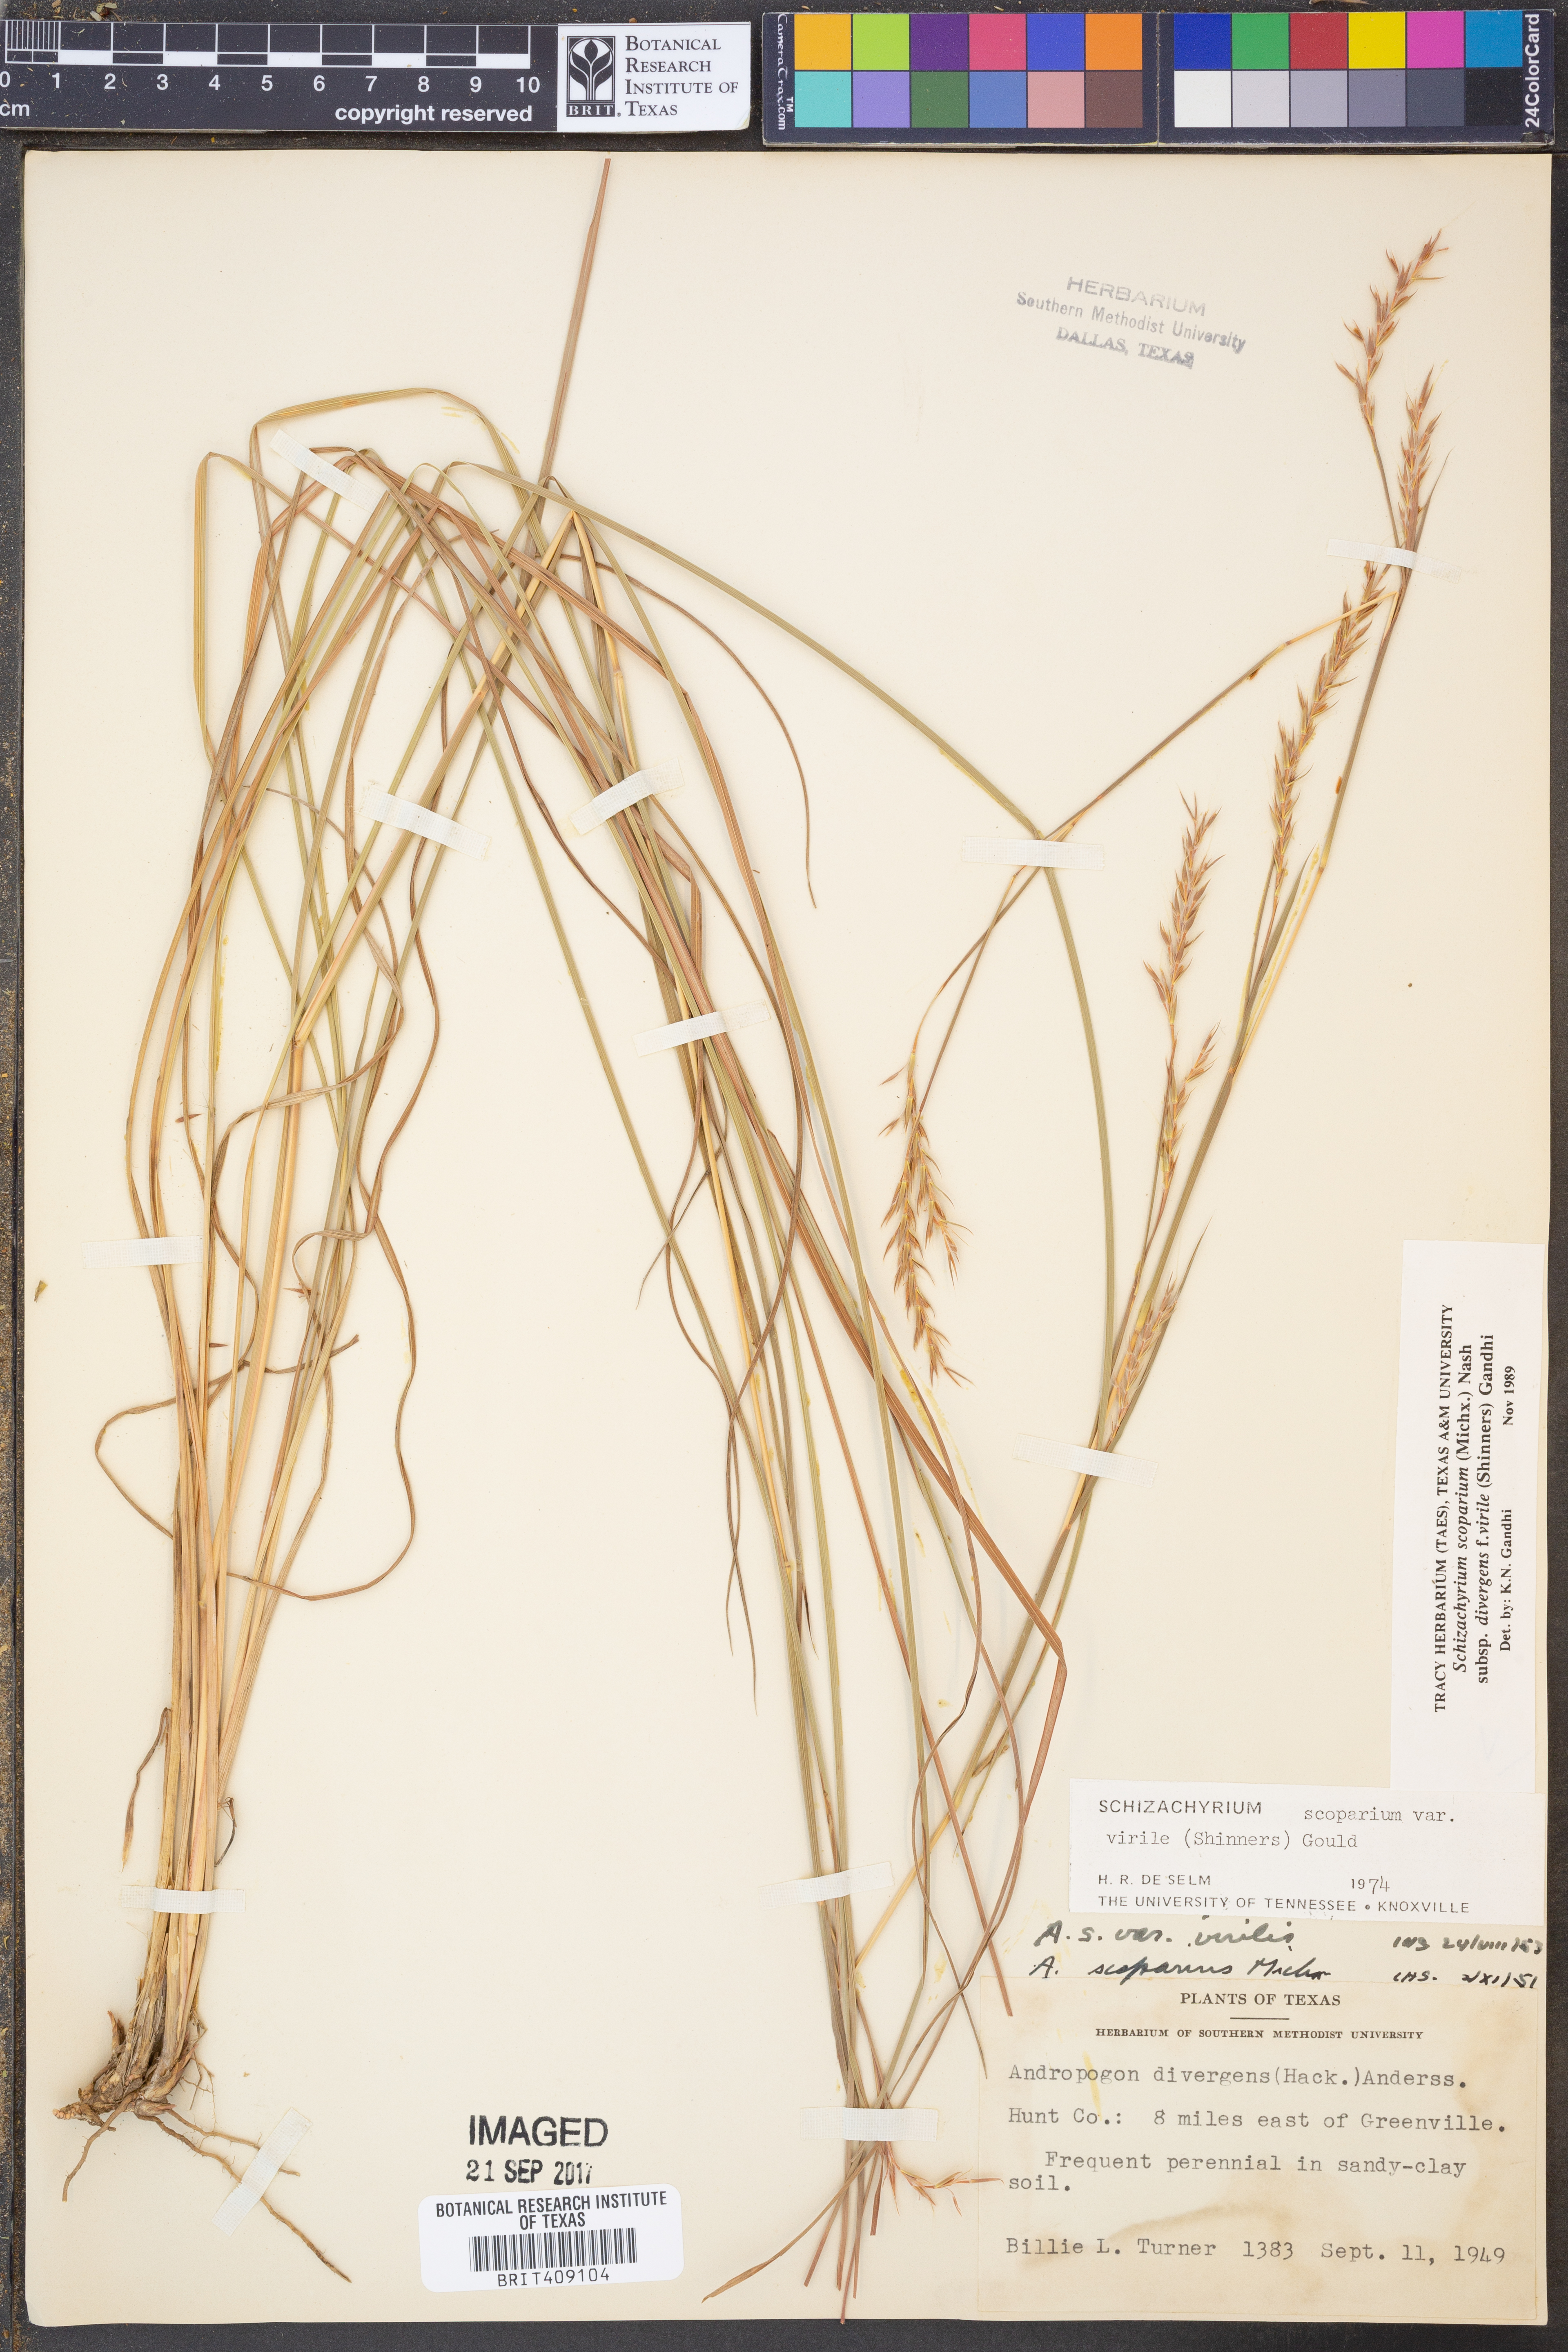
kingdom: Plantae
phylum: Tracheophyta
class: Liliopsida
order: Poales
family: Poaceae
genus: Schizachyrium
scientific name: Schizachyrium scoparium
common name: Little bluestem
